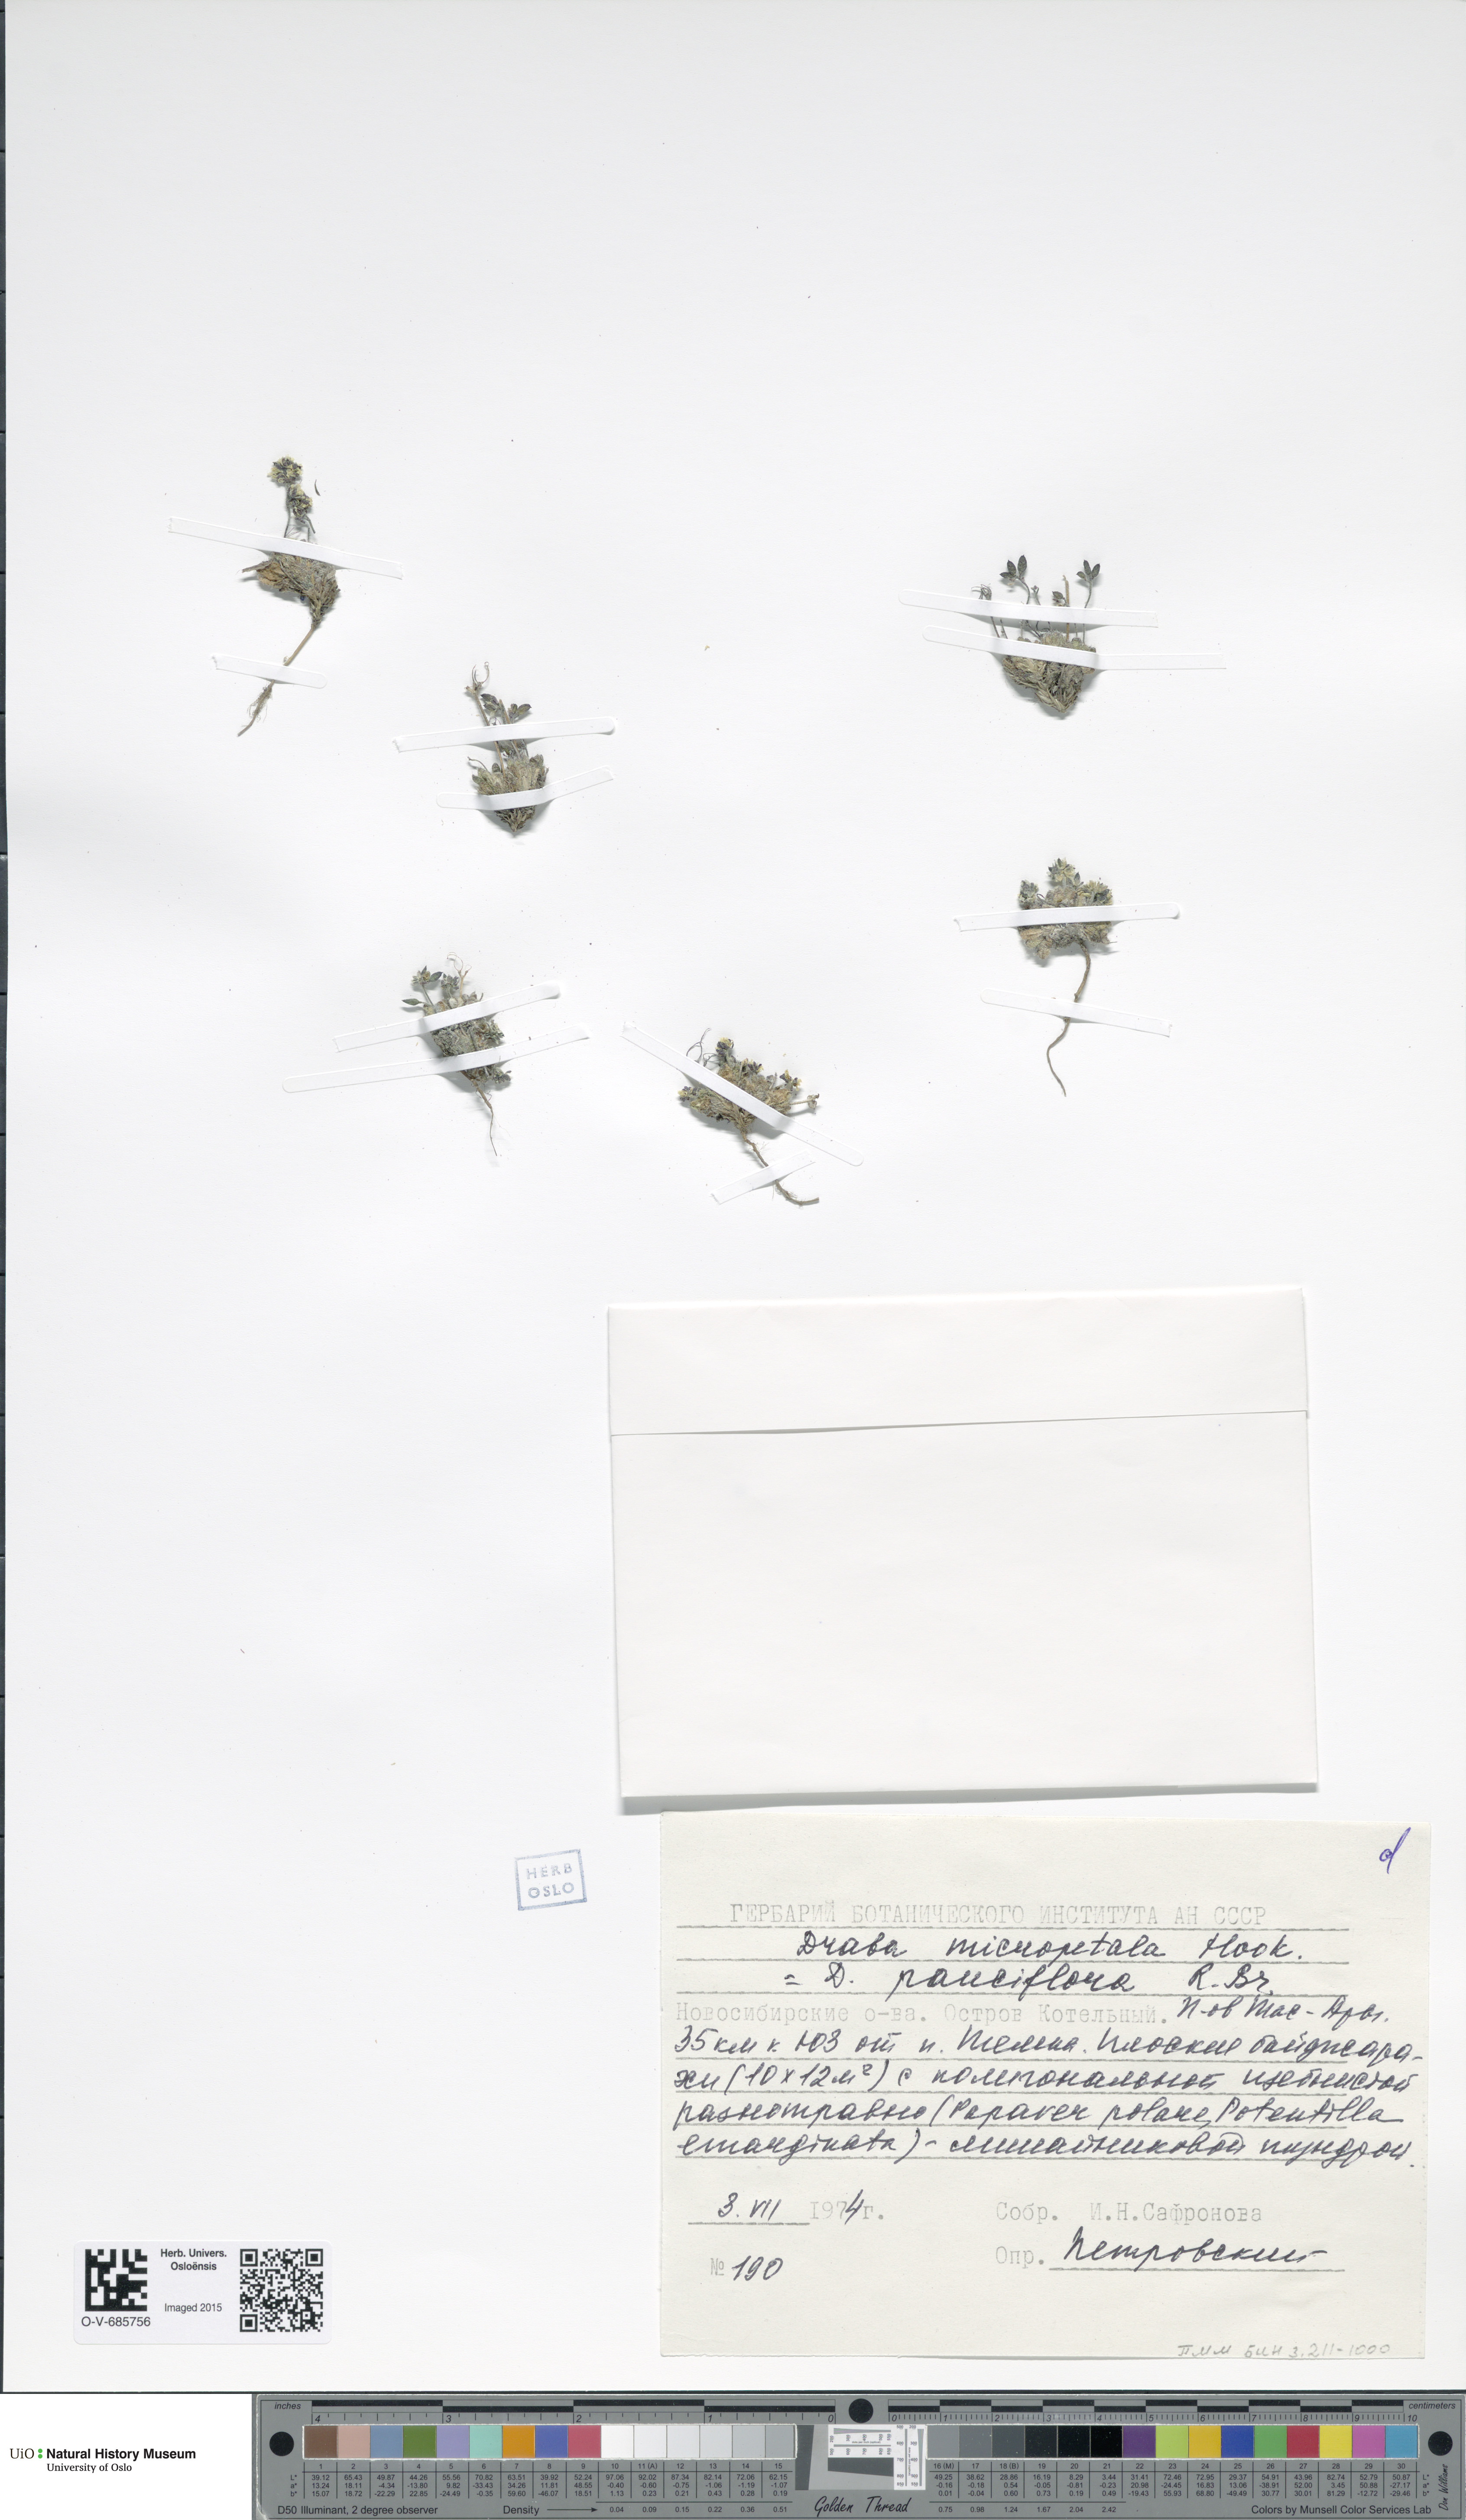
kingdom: Plantae
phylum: Tracheophyta
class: Magnoliopsida
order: Brassicales
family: Brassicaceae
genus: Draba
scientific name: Draba pauciflora
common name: Few-flowered draba
